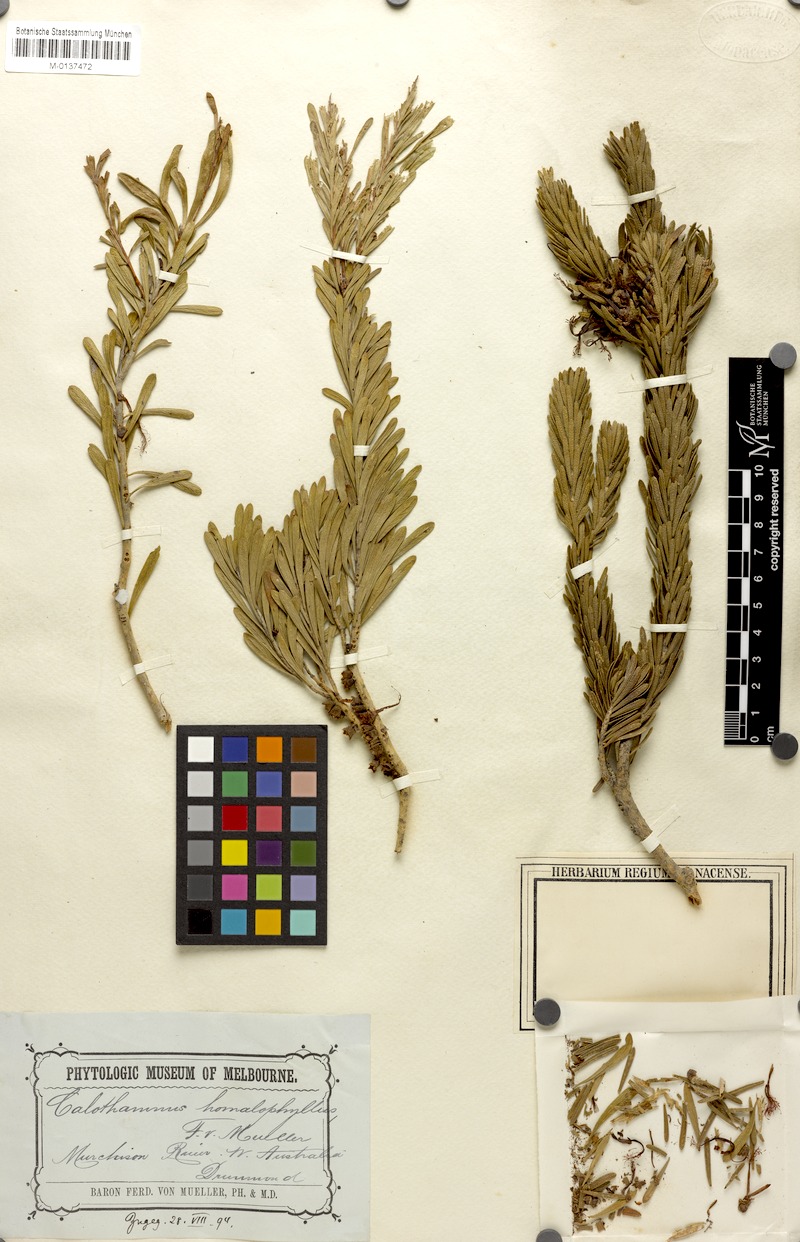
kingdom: Plantae
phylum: Tracheophyta
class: Magnoliopsida
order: Myrtales
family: Myrtaceae
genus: Melaleuca
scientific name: Melaleuca quadrifida
